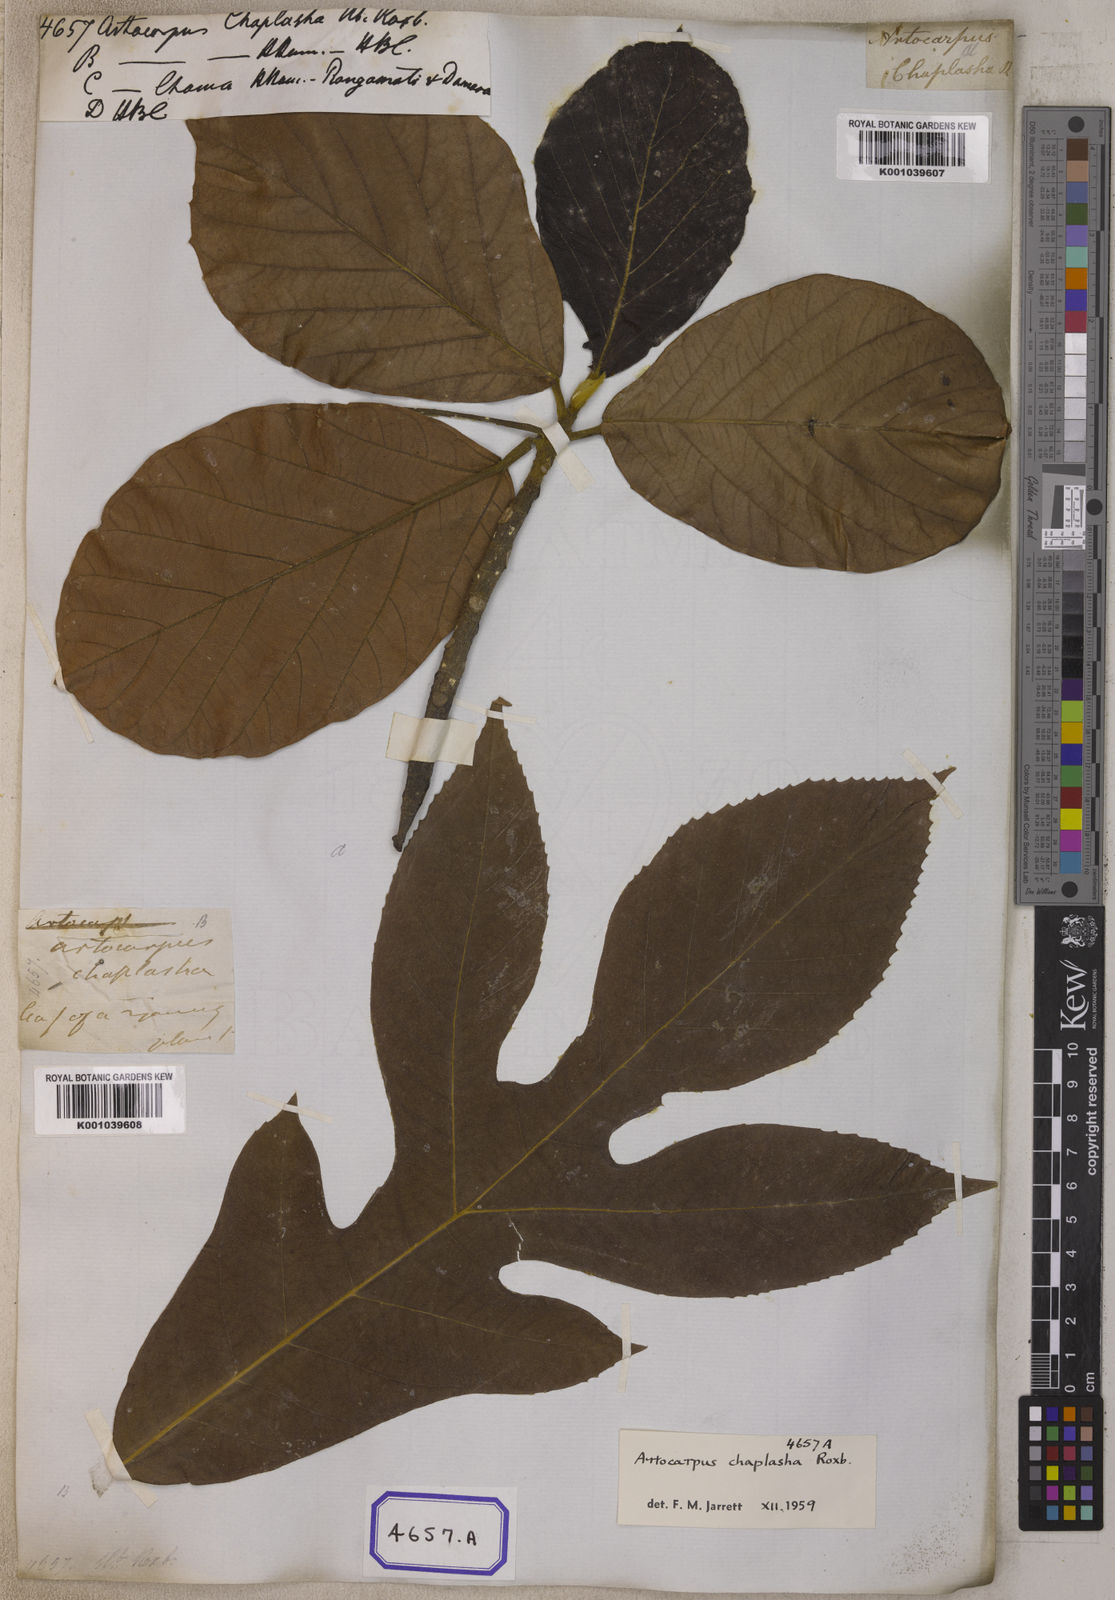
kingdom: Plantae
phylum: Tracheophyta
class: Magnoliopsida
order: Rosales
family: Moraceae
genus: Artocarpus
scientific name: Artocarpus chama
